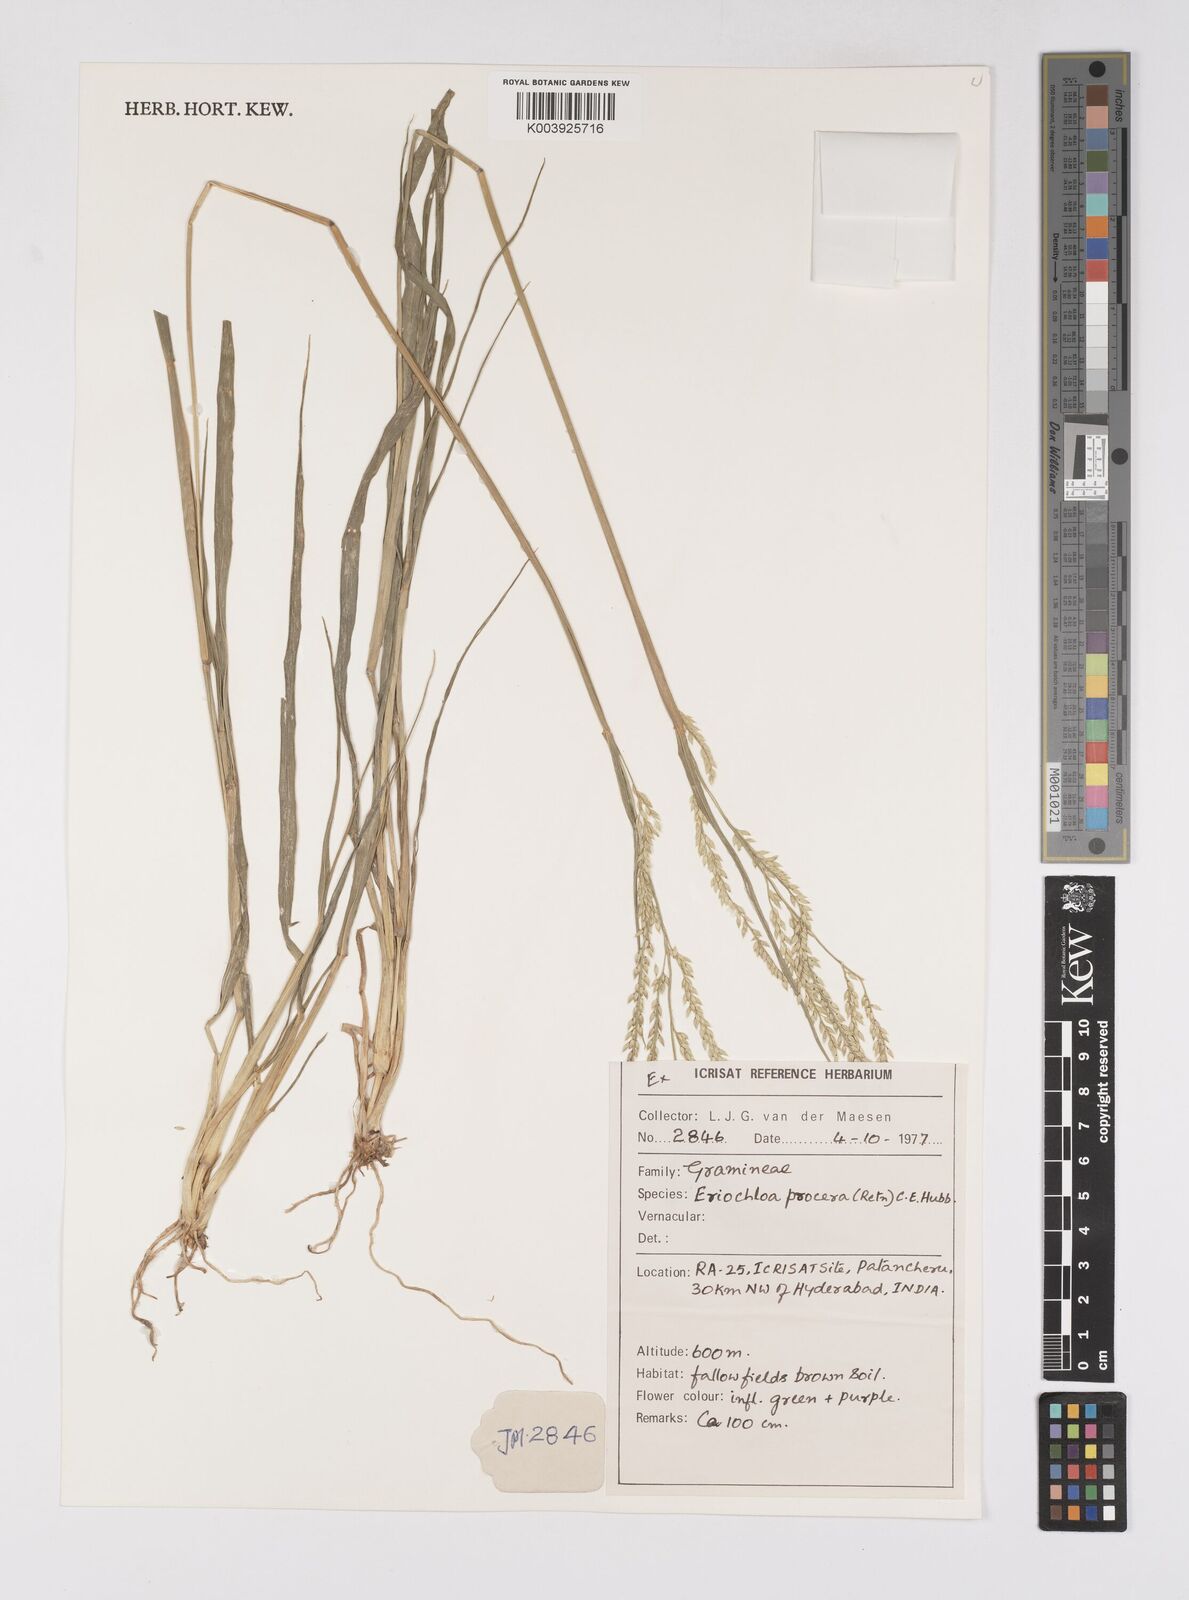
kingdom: Plantae
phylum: Tracheophyta
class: Liliopsida
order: Poales
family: Poaceae
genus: Eriochloa
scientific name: Eriochloa procera
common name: Spring grass
